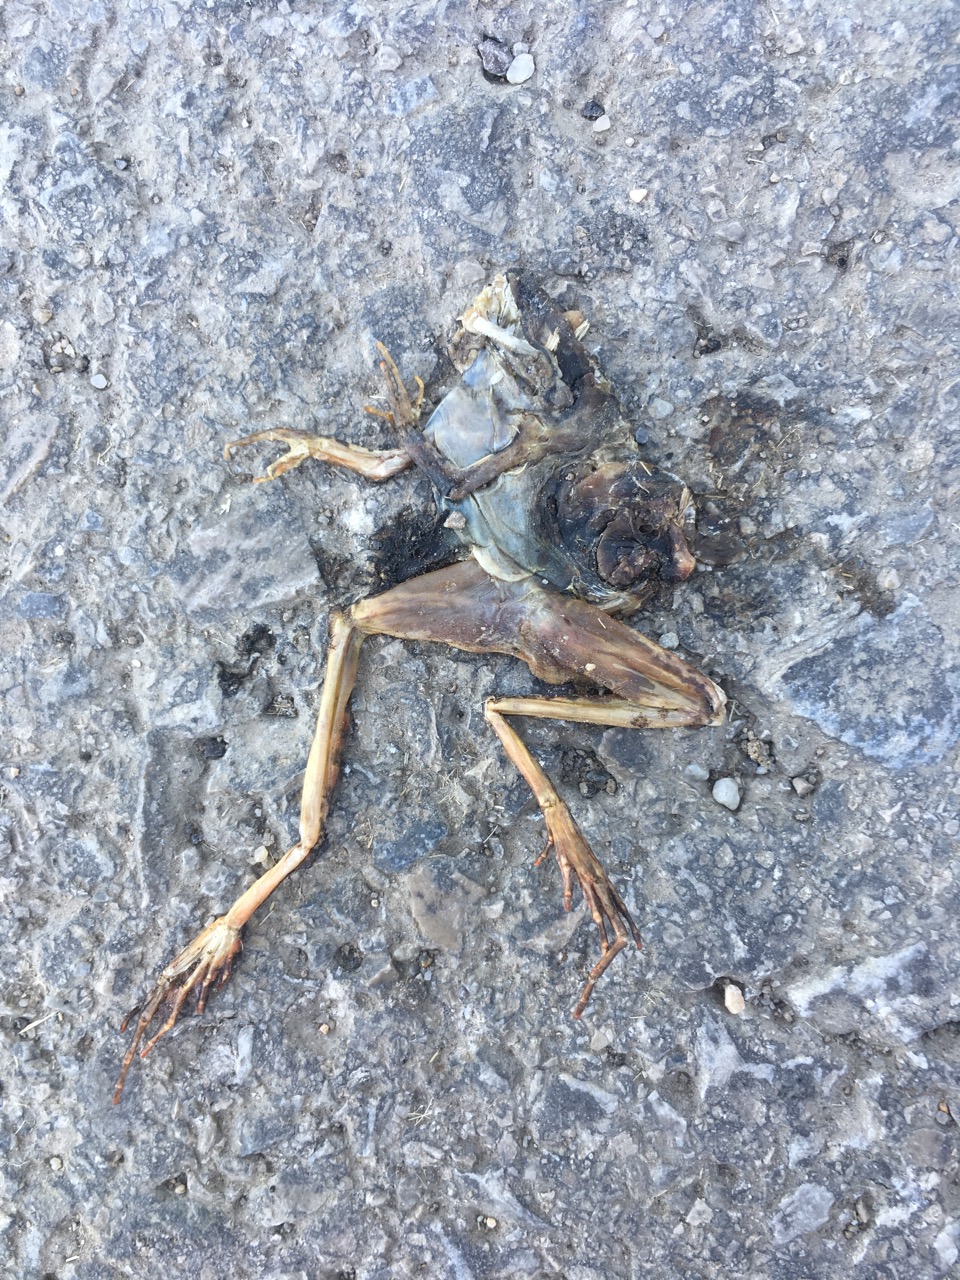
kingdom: Animalia
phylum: Chordata
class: Amphibia
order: Anura
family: Ranidae
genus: Rana
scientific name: Rana dalmatina
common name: Agile frog
